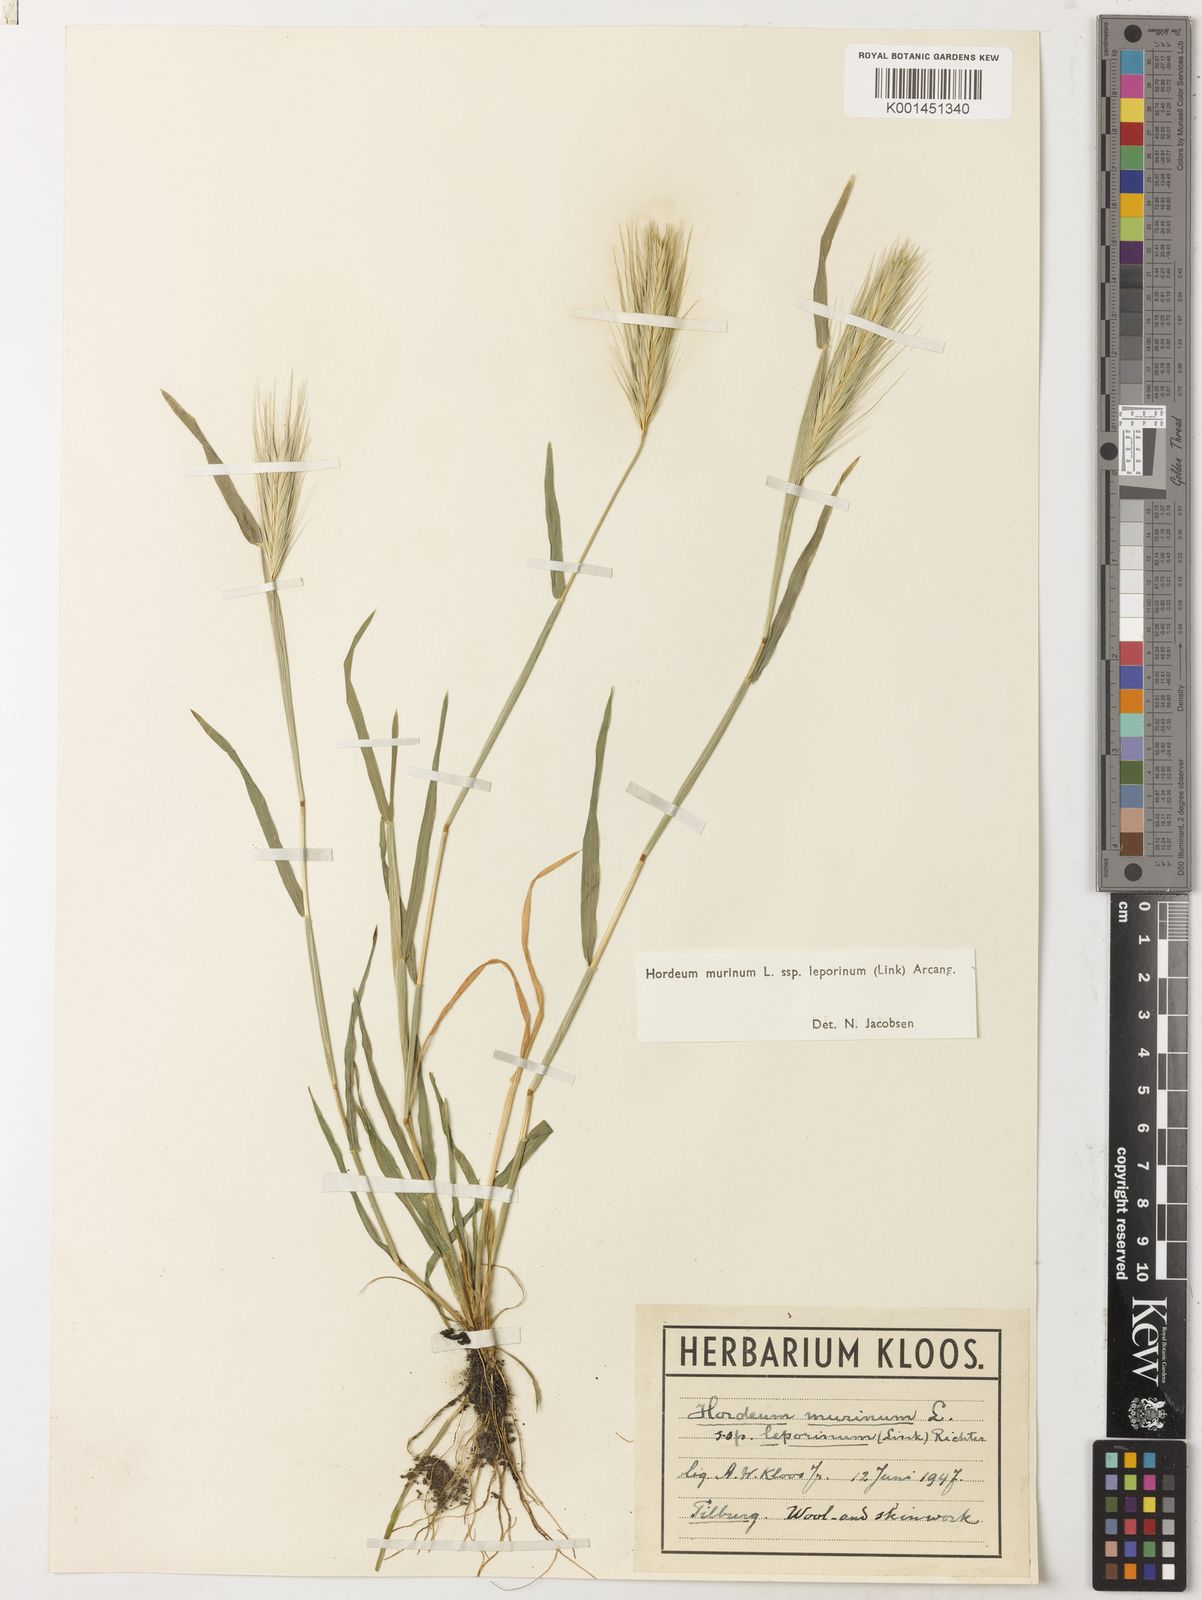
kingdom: Plantae
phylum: Tracheophyta
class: Liliopsida
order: Poales
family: Poaceae
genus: Hordeum
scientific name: Hordeum murinum
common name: Wall barley
